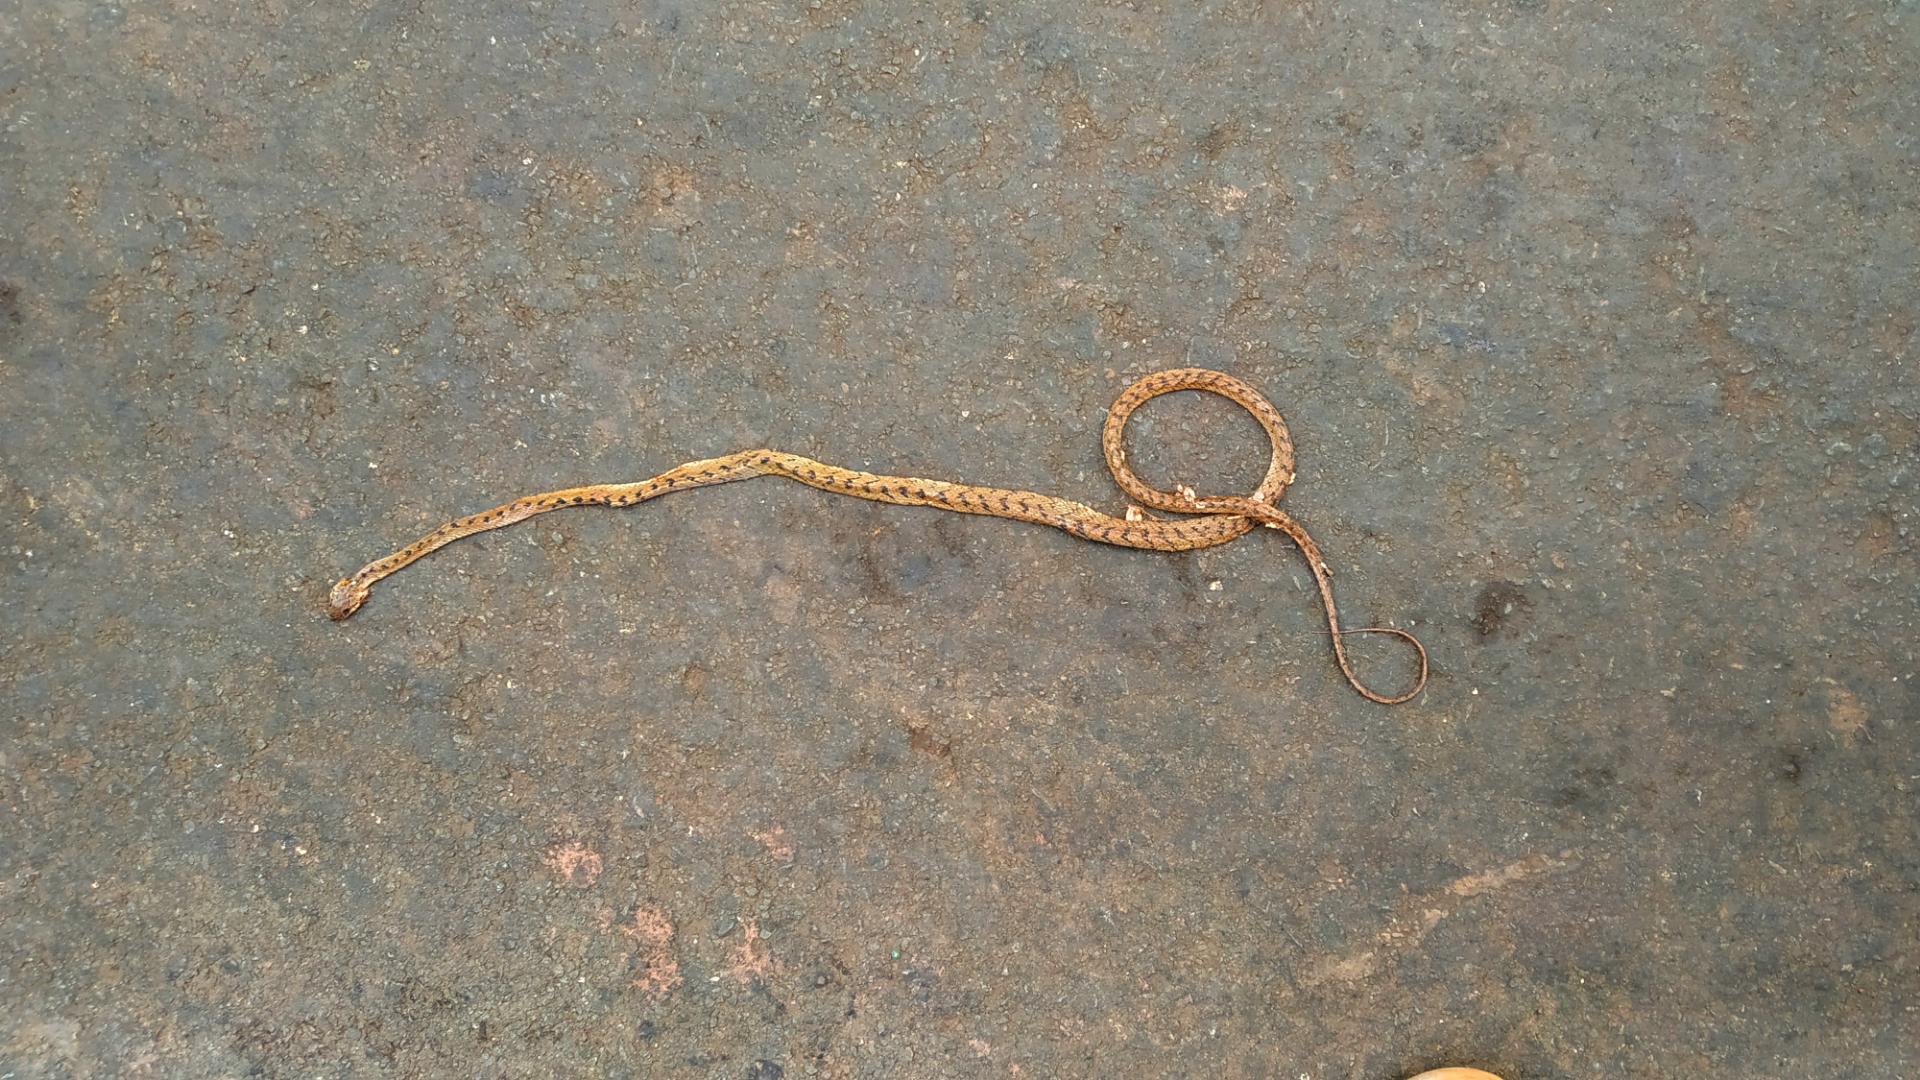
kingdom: Animalia
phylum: Chordata
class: Squamata
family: Colubridae
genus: Boiga
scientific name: Boiga forsteni
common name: Forsten's cat snake
